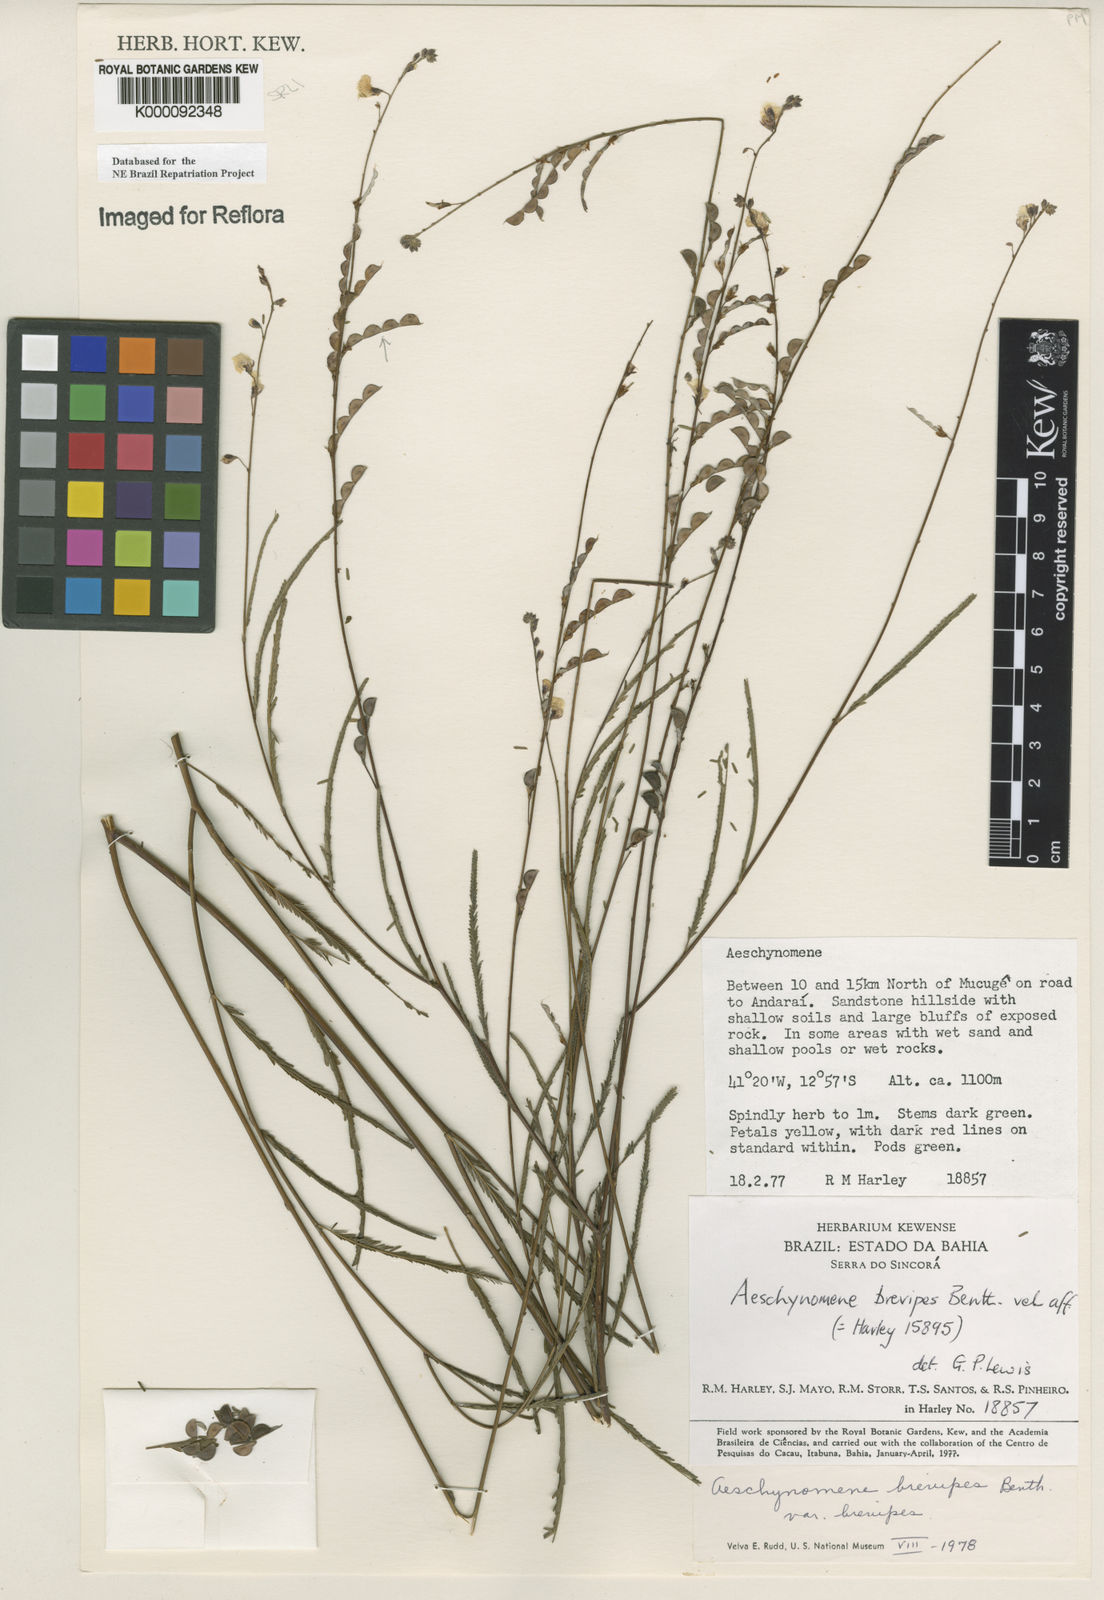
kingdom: Plantae
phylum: Tracheophyta
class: Magnoliopsida
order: Fabales
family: Fabaceae
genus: Ctenodon
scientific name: Ctenodon brevipes
